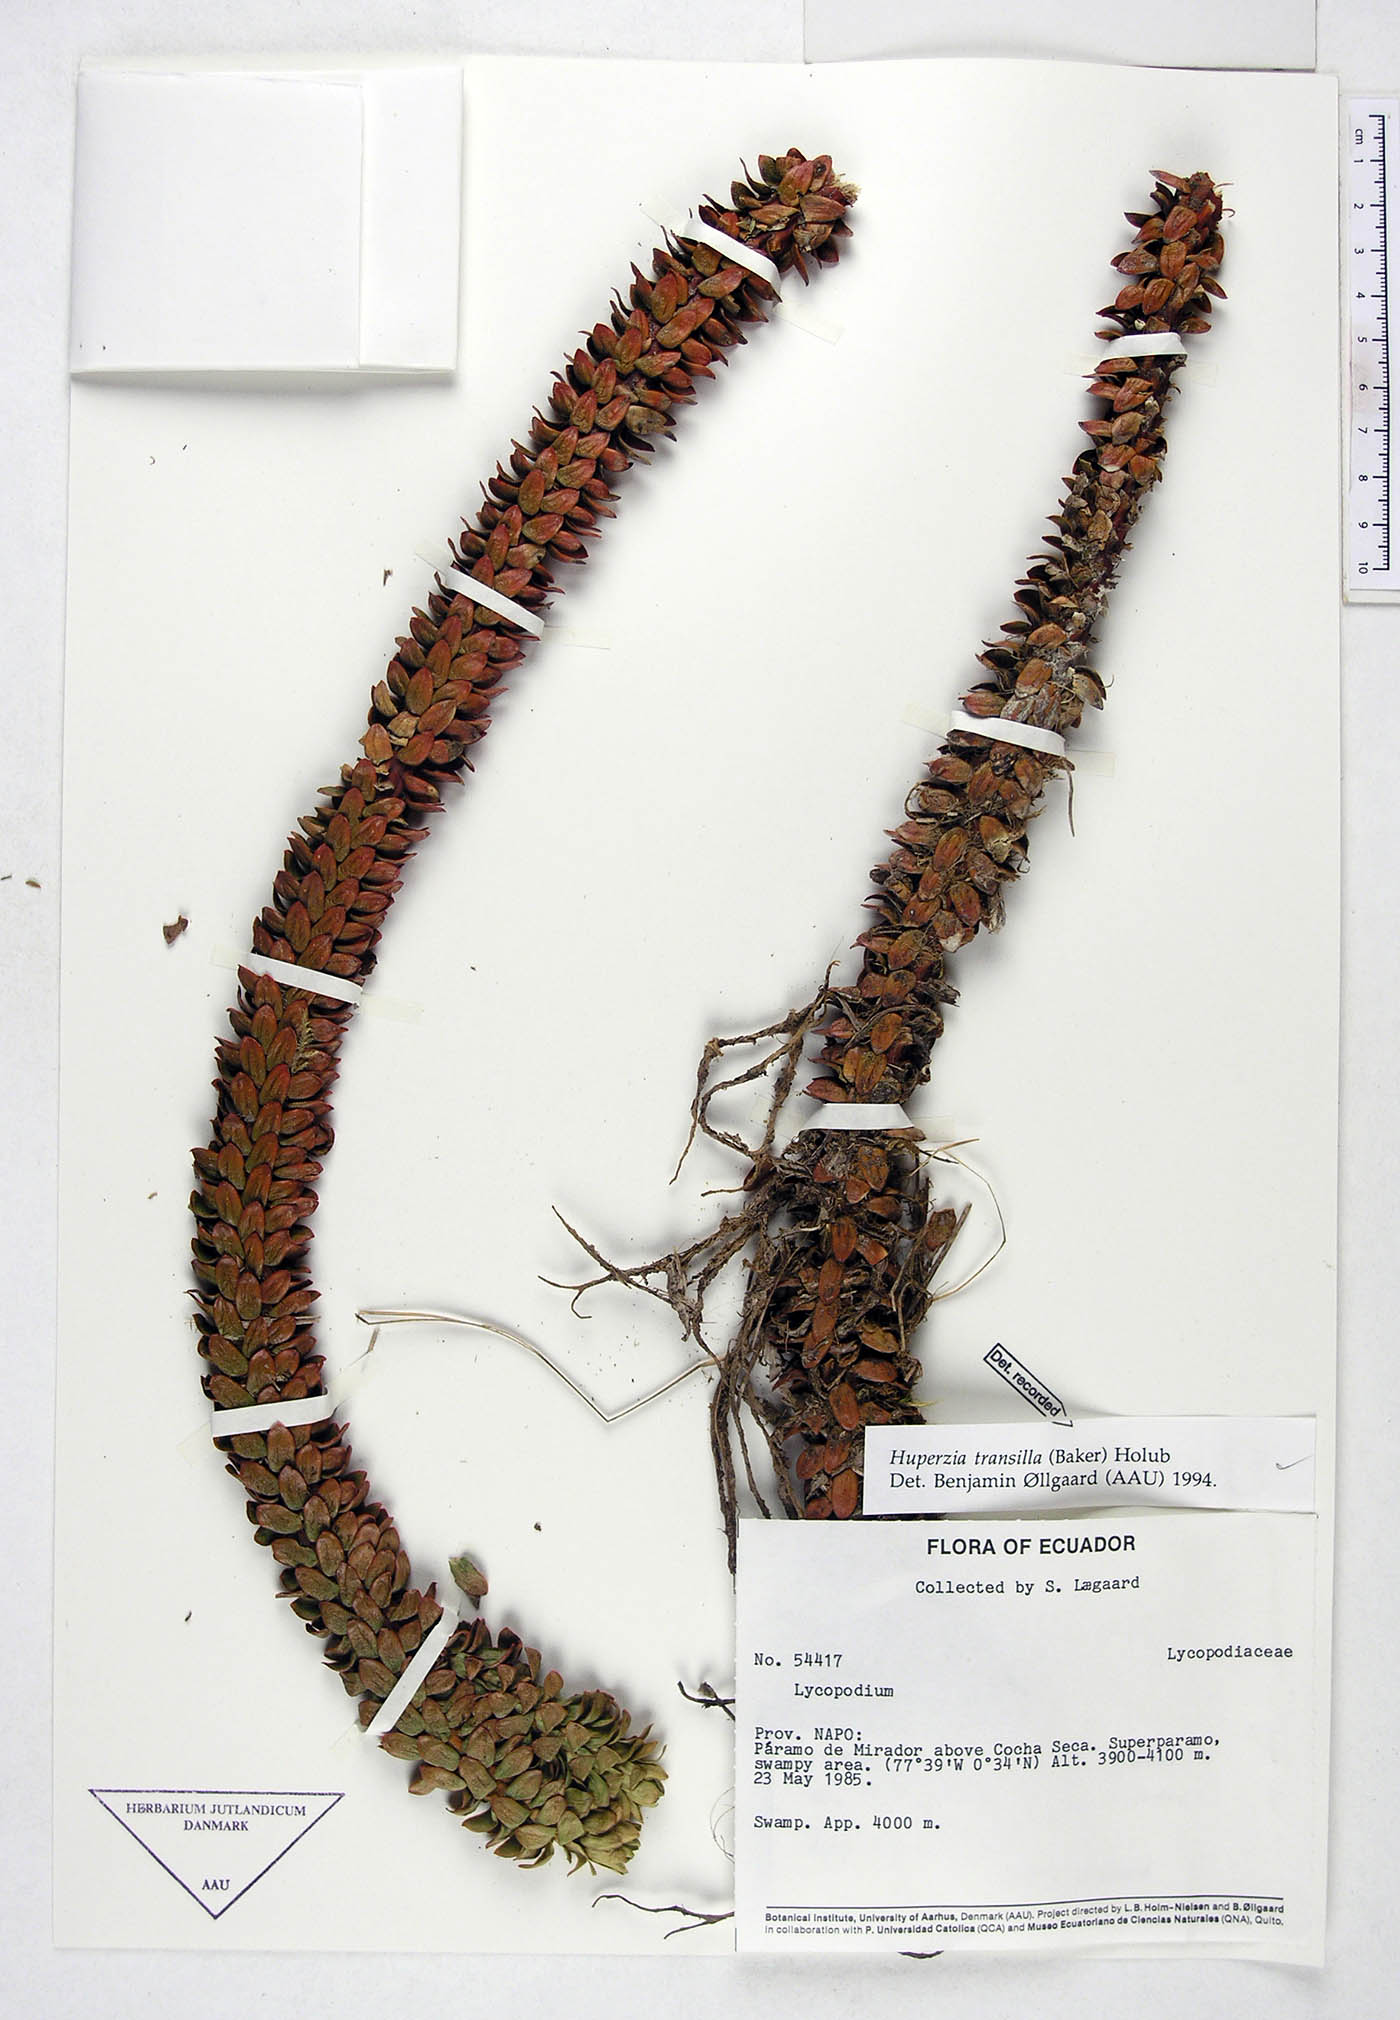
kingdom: Plantae
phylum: Tracheophyta
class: Lycopodiopsida
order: Lycopodiales
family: Lycopodiaceae
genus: Phlegmariurus
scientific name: Phlegmariurus transilla
